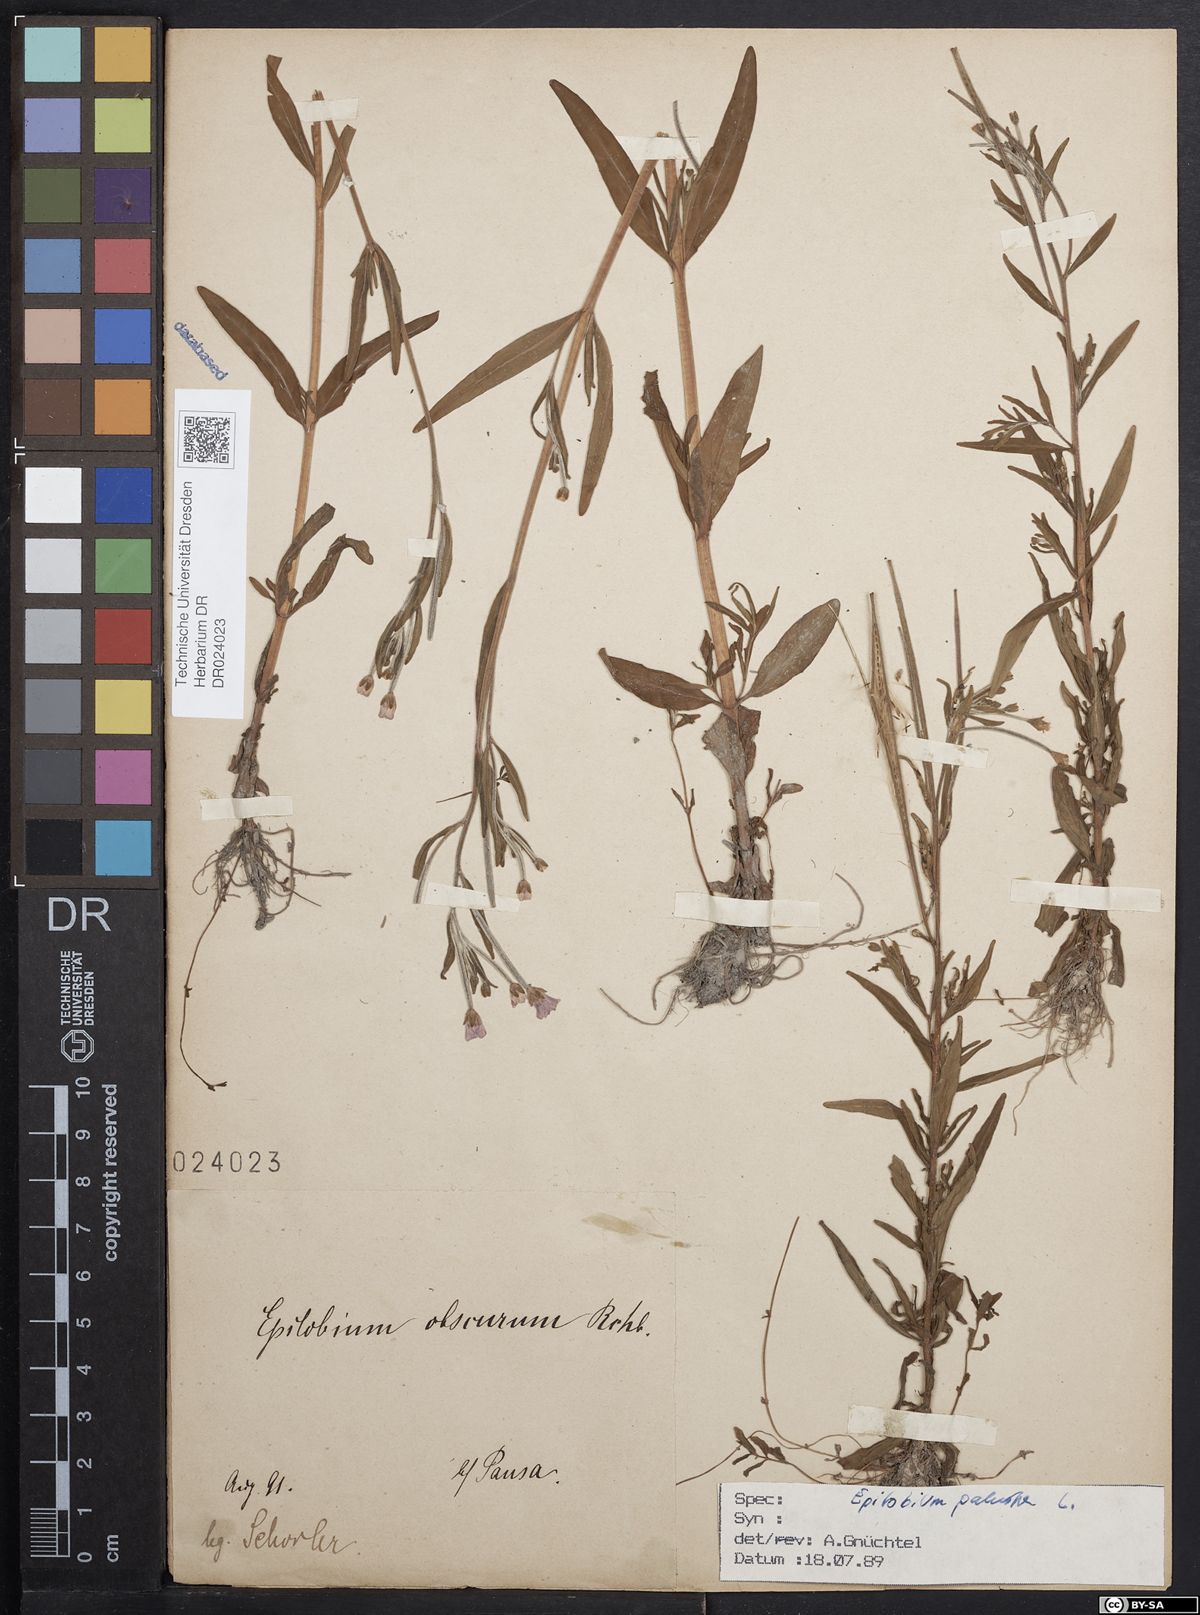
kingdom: Plantae
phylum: Tracheophyta
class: Magnoliopsida
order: Myrtales
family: Onagraceae
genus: Epilobium
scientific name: Epilobium palustre
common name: Marsh willowherb
